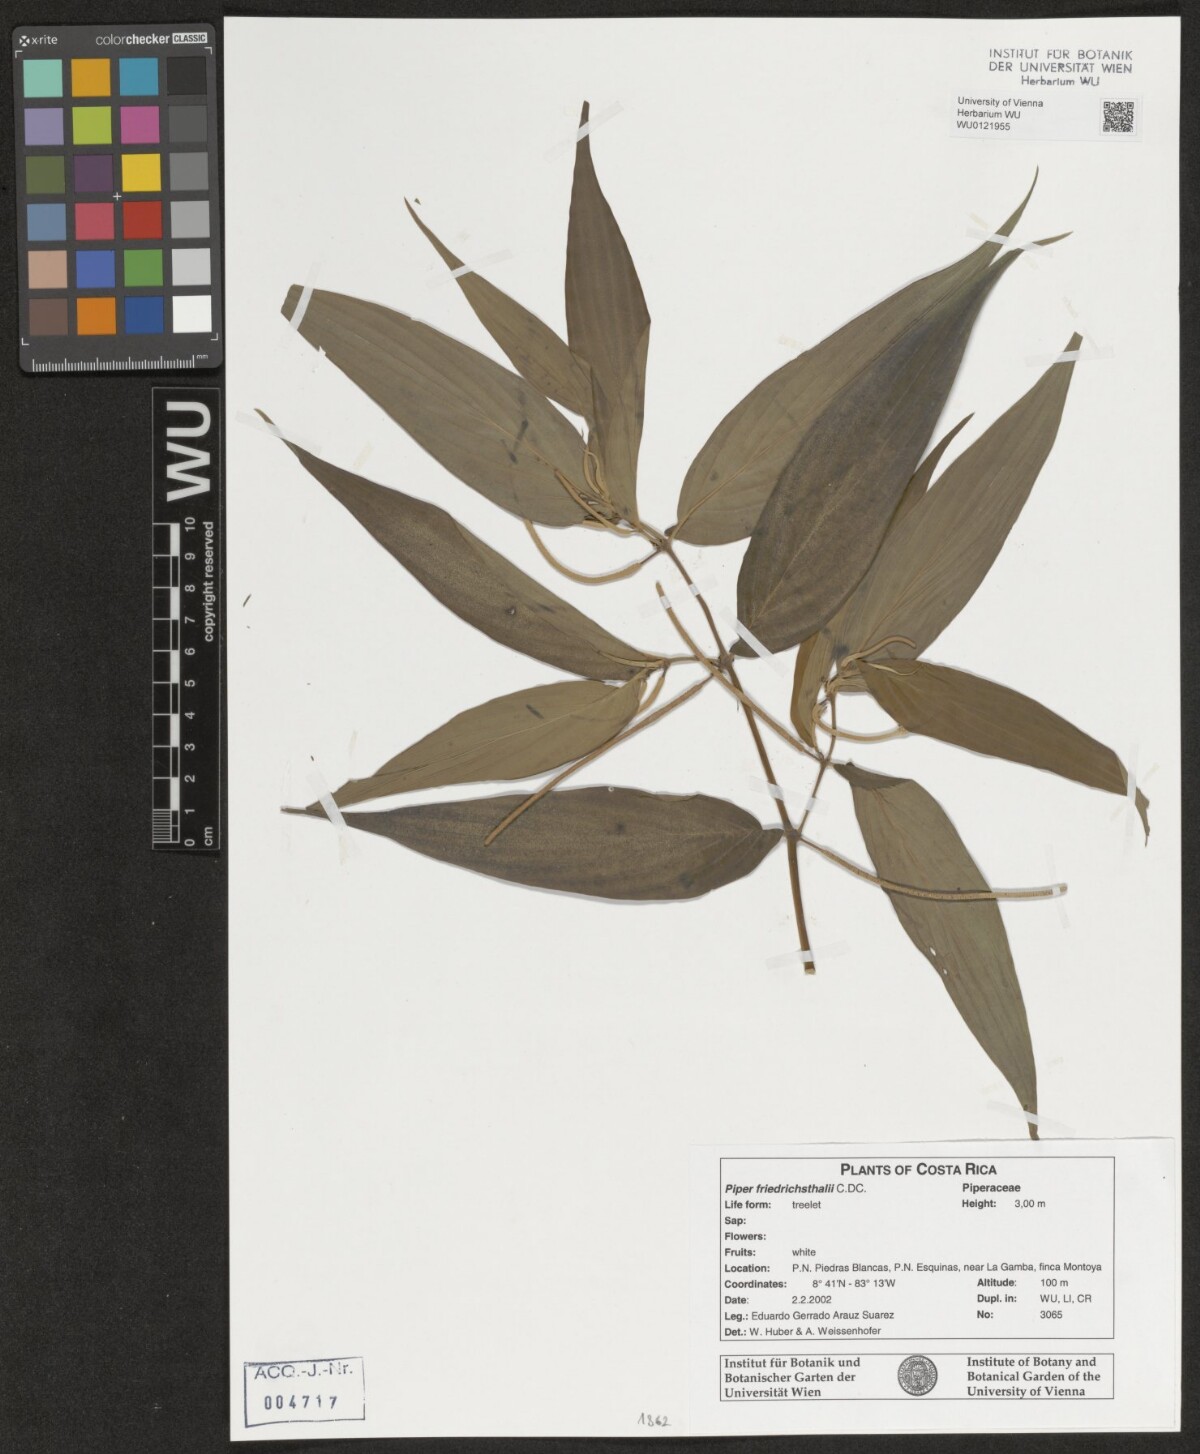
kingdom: Plantae
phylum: Tracheophyta
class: Magnoliopsida
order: Piperales
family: Piperaceae
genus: Piper
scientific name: Piper friedrichsthalii
